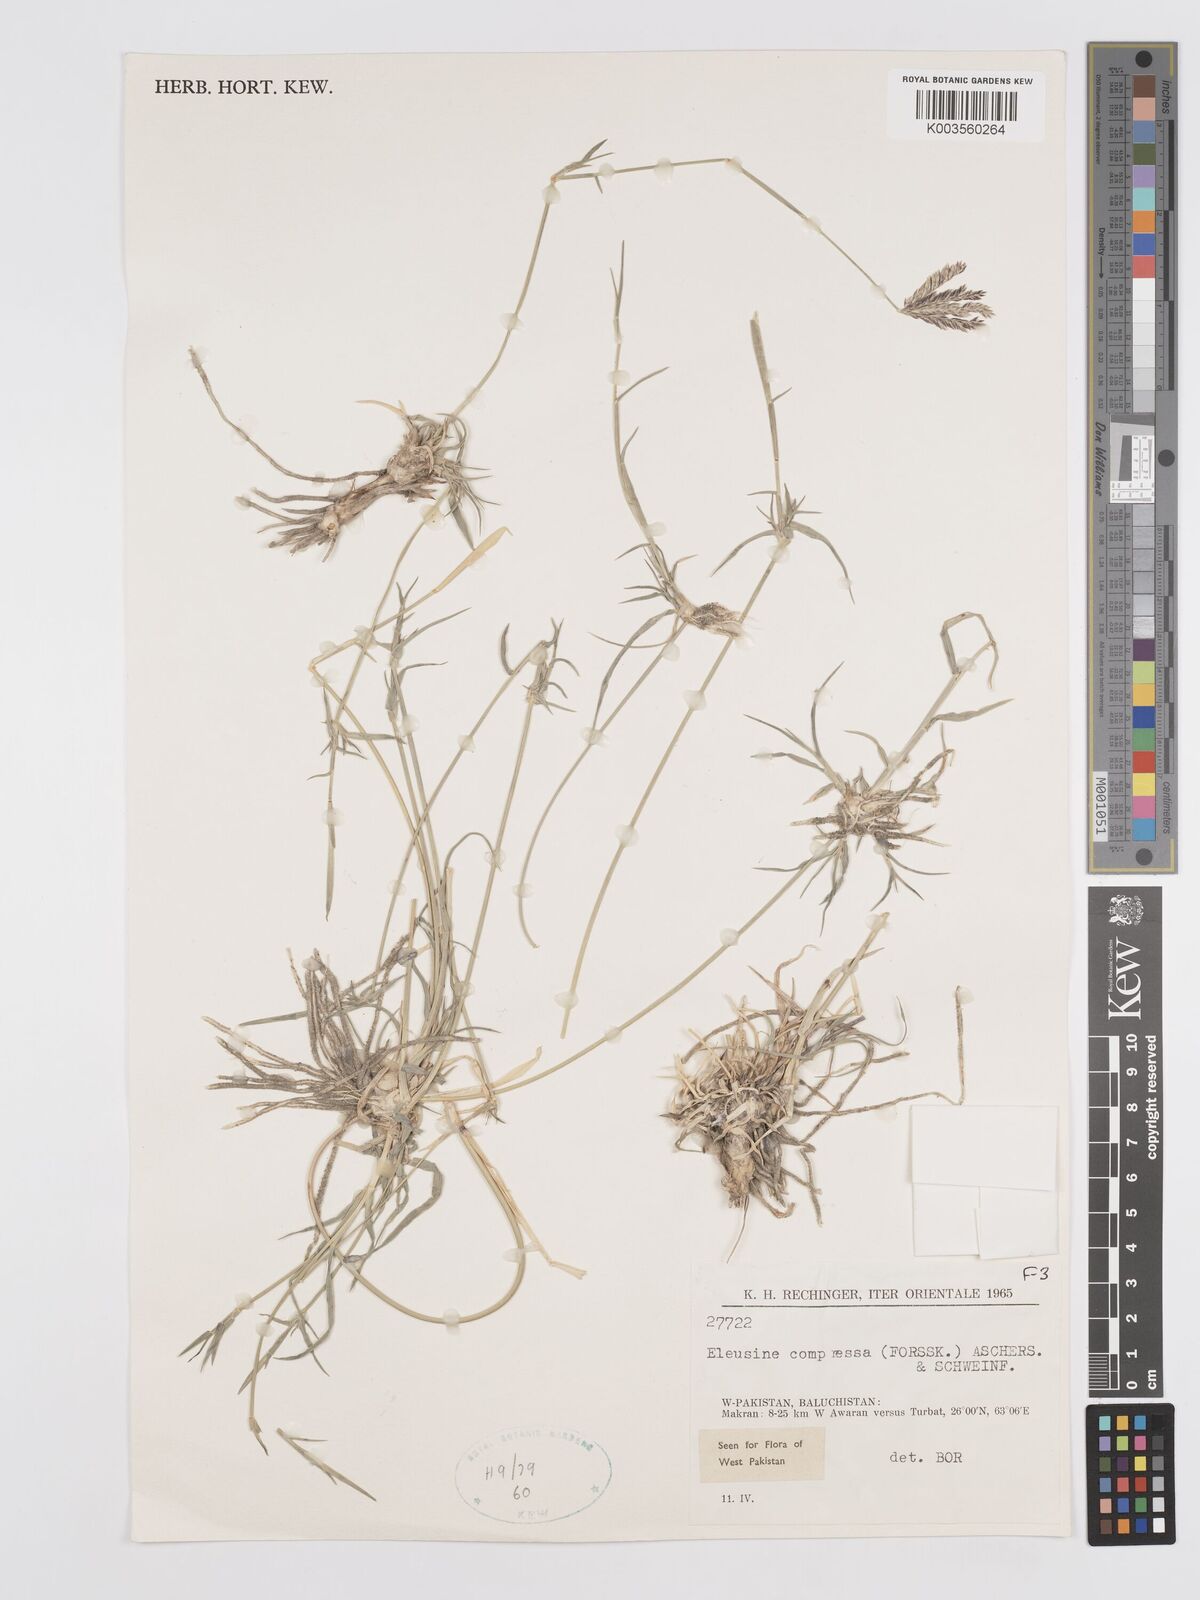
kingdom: Plantae
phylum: Tracheophyta
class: Liliopsida
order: Poales
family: Poaceae
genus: Chloris
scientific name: Chloris flagellifera
